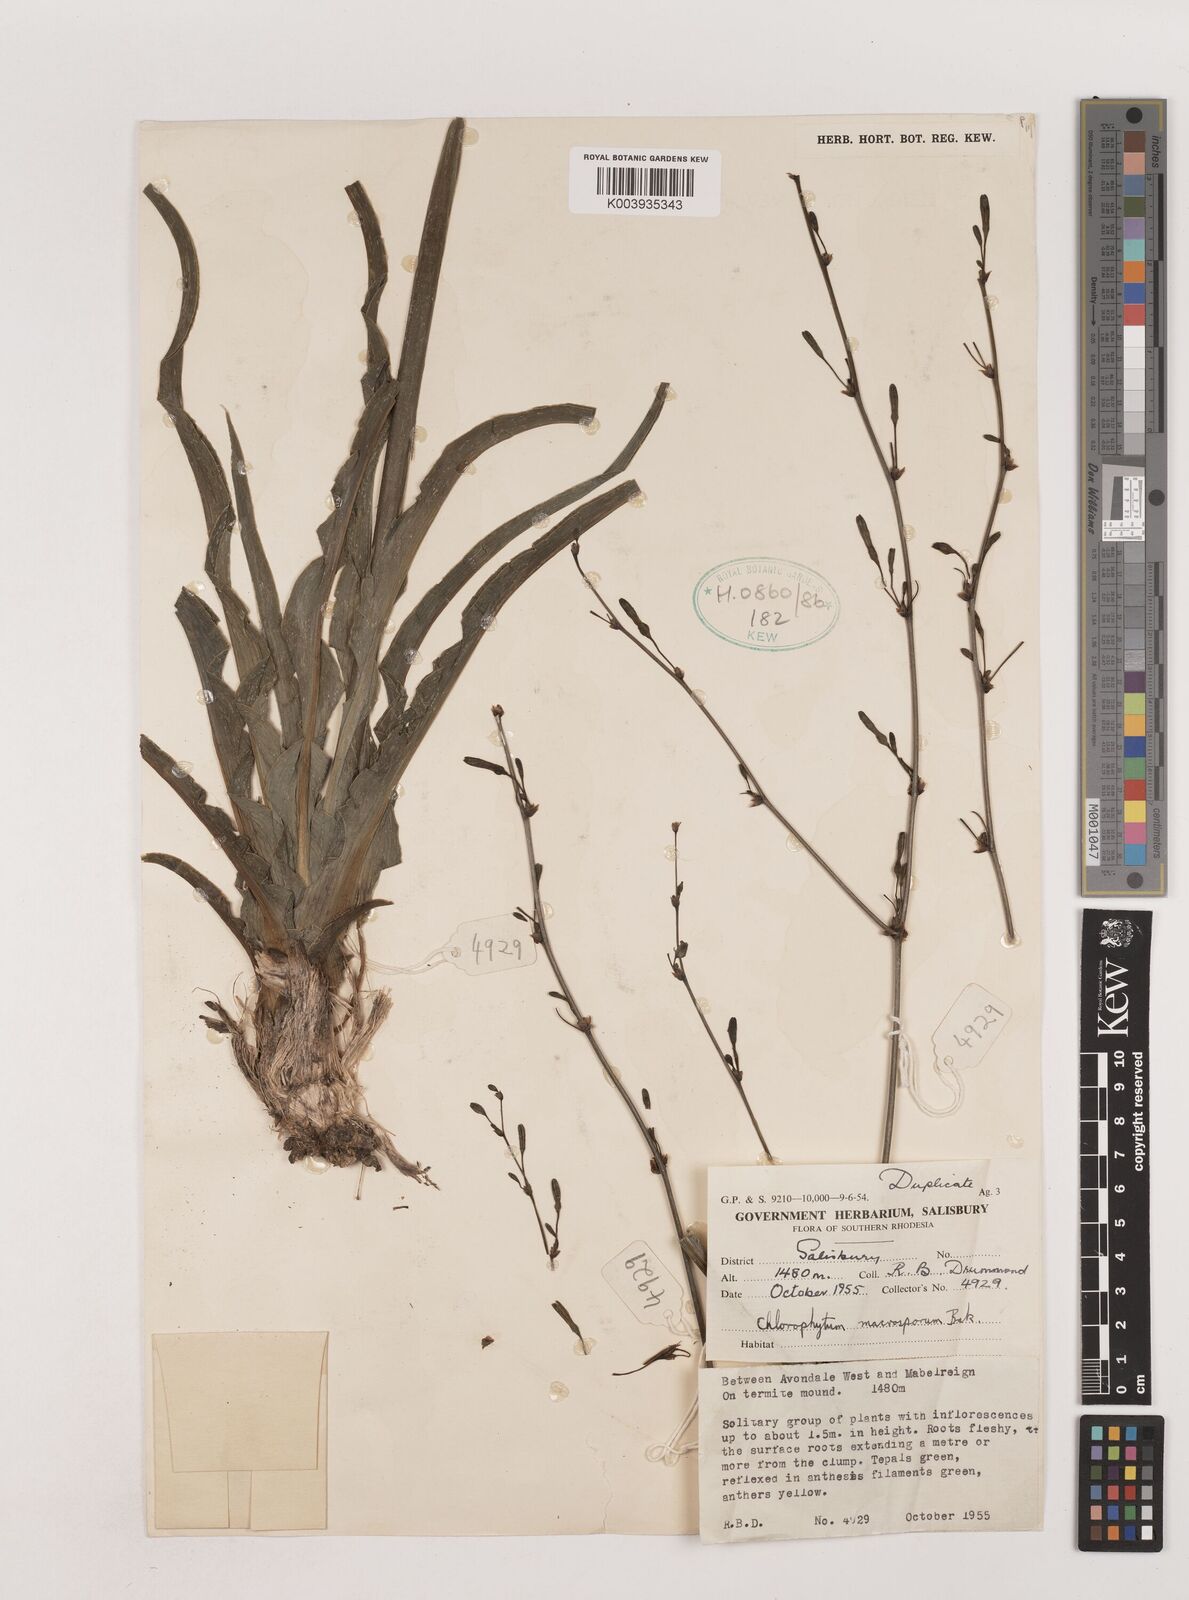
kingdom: Plantae
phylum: Tracheophyta
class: Liliopsida
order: Asparagales
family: Asparagaceae
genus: Chlorophytum
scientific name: Chlorophytum macrosporum
